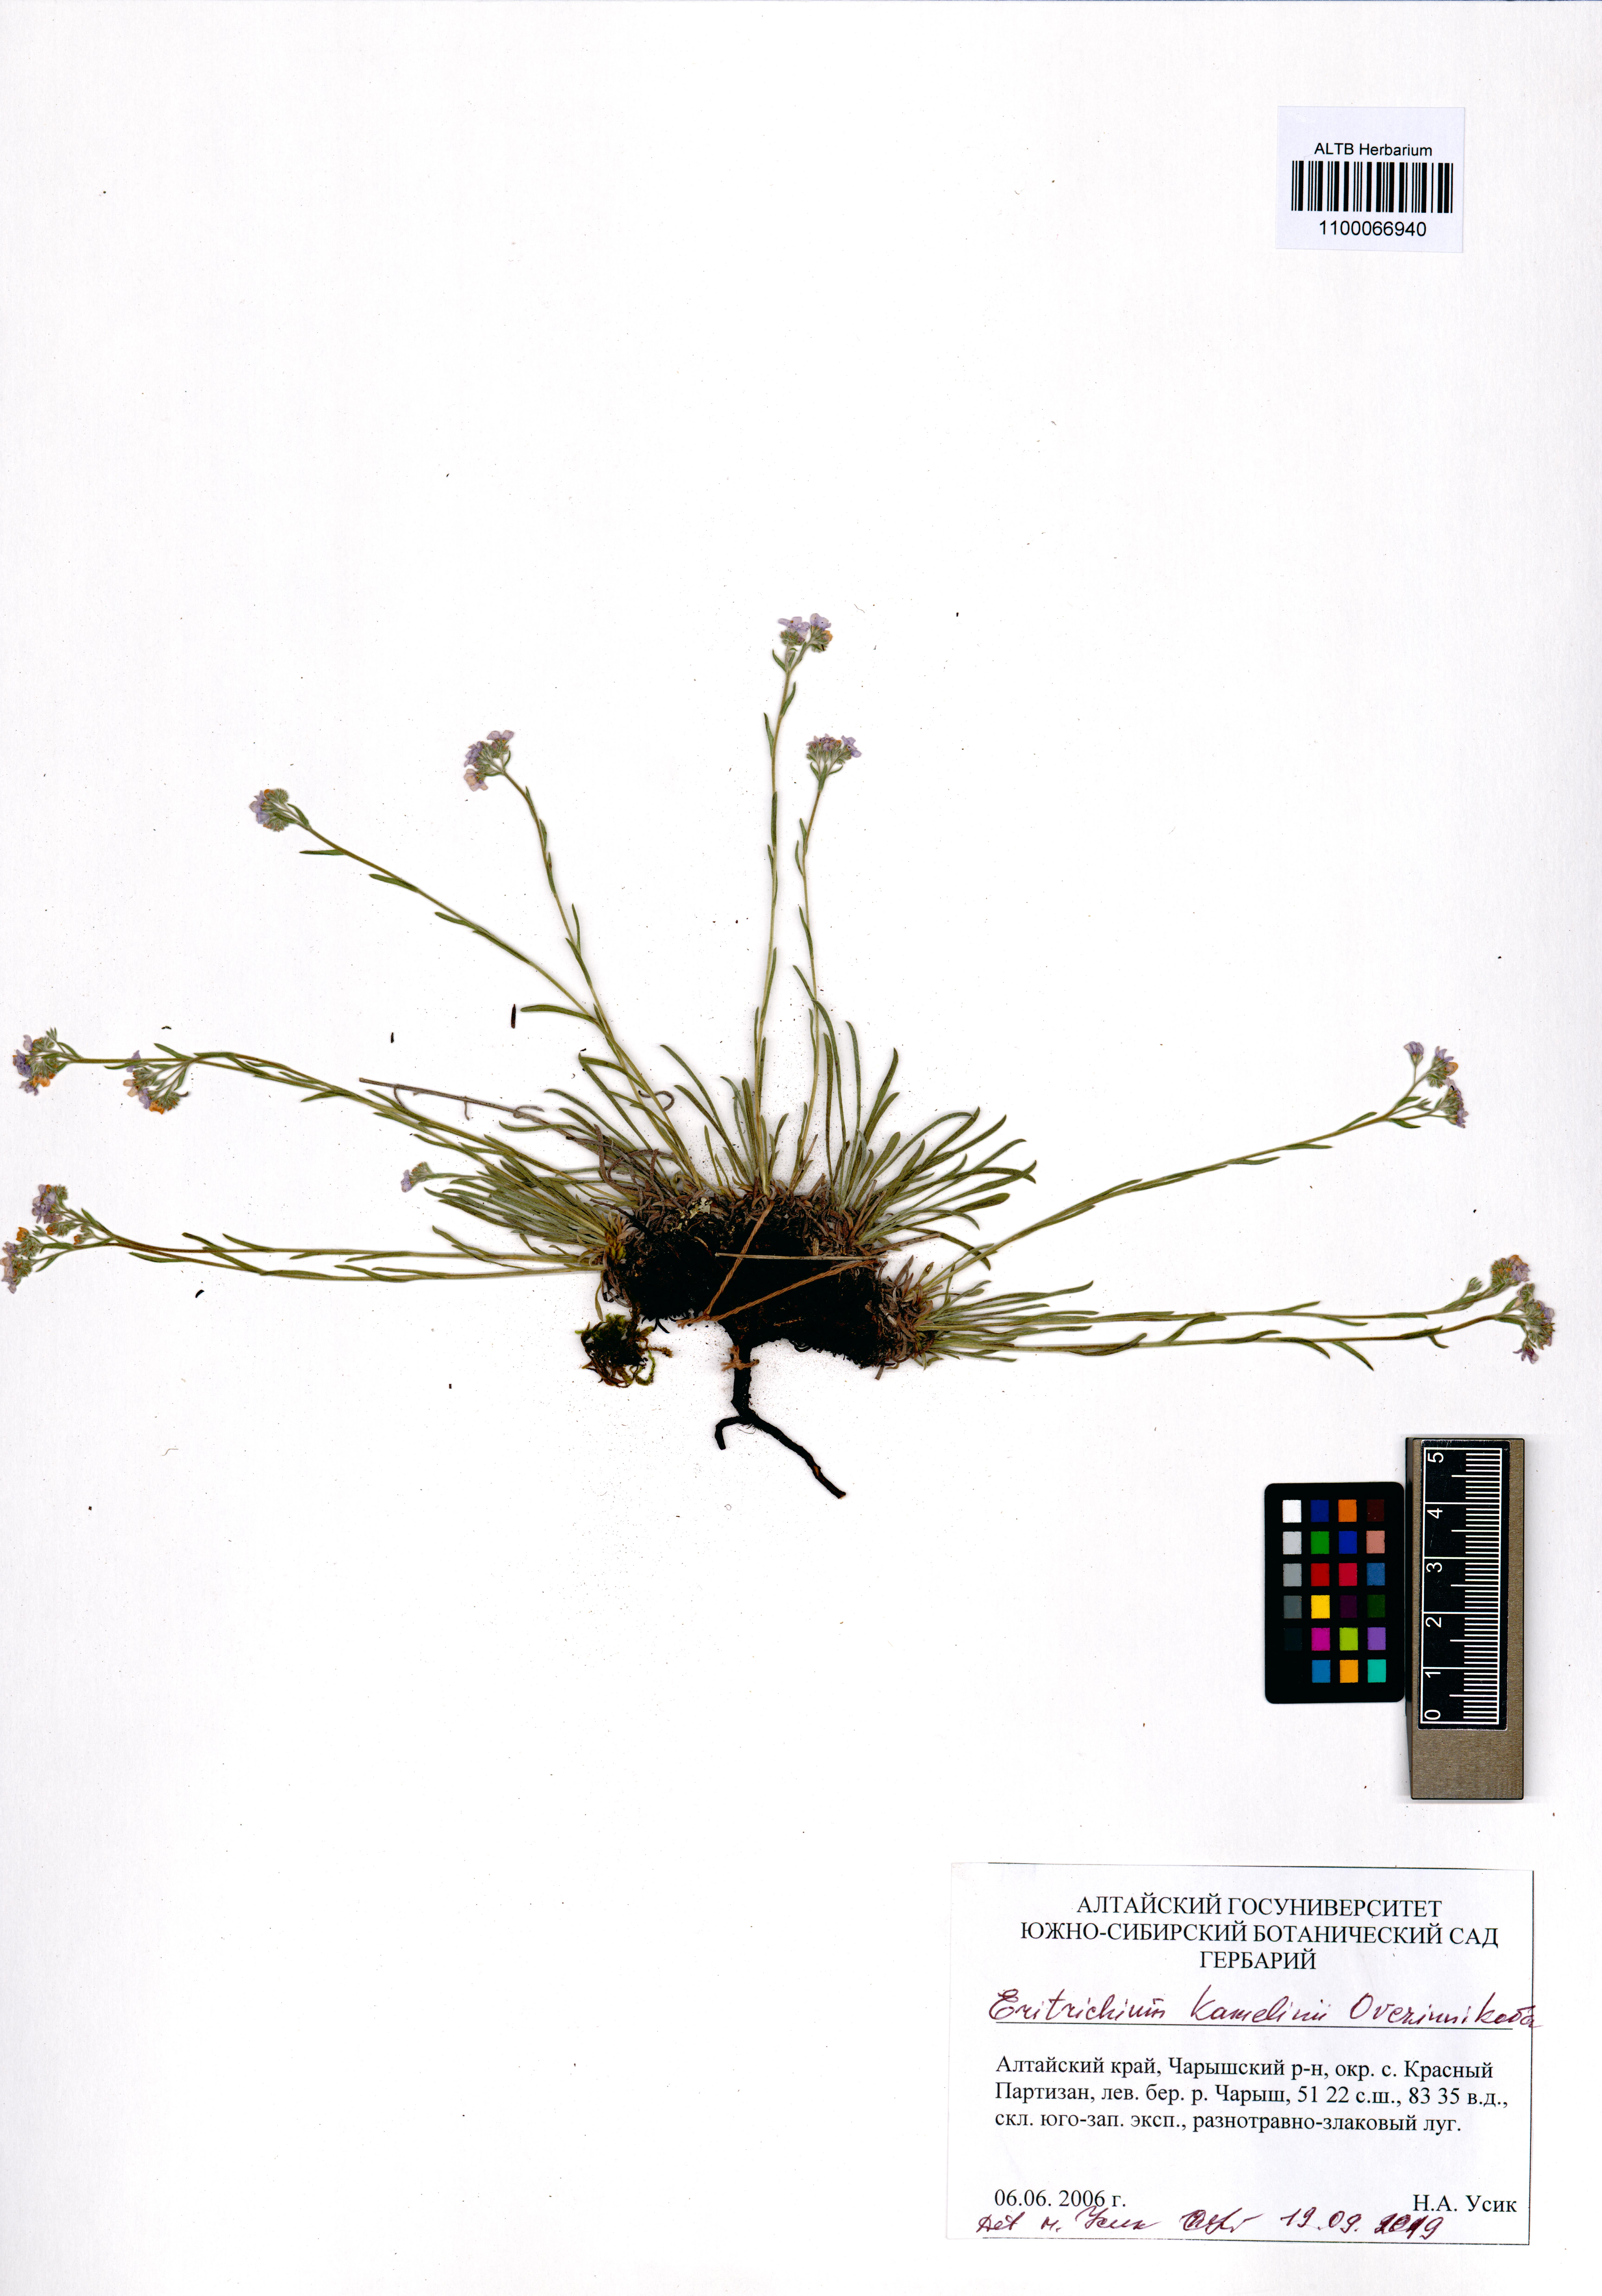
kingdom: Plantae
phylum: Tracheophyta
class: Magnoliopsida
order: Boraginales
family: Boraginaceae
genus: Eritrichium
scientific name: Eritrichium kamelinii
